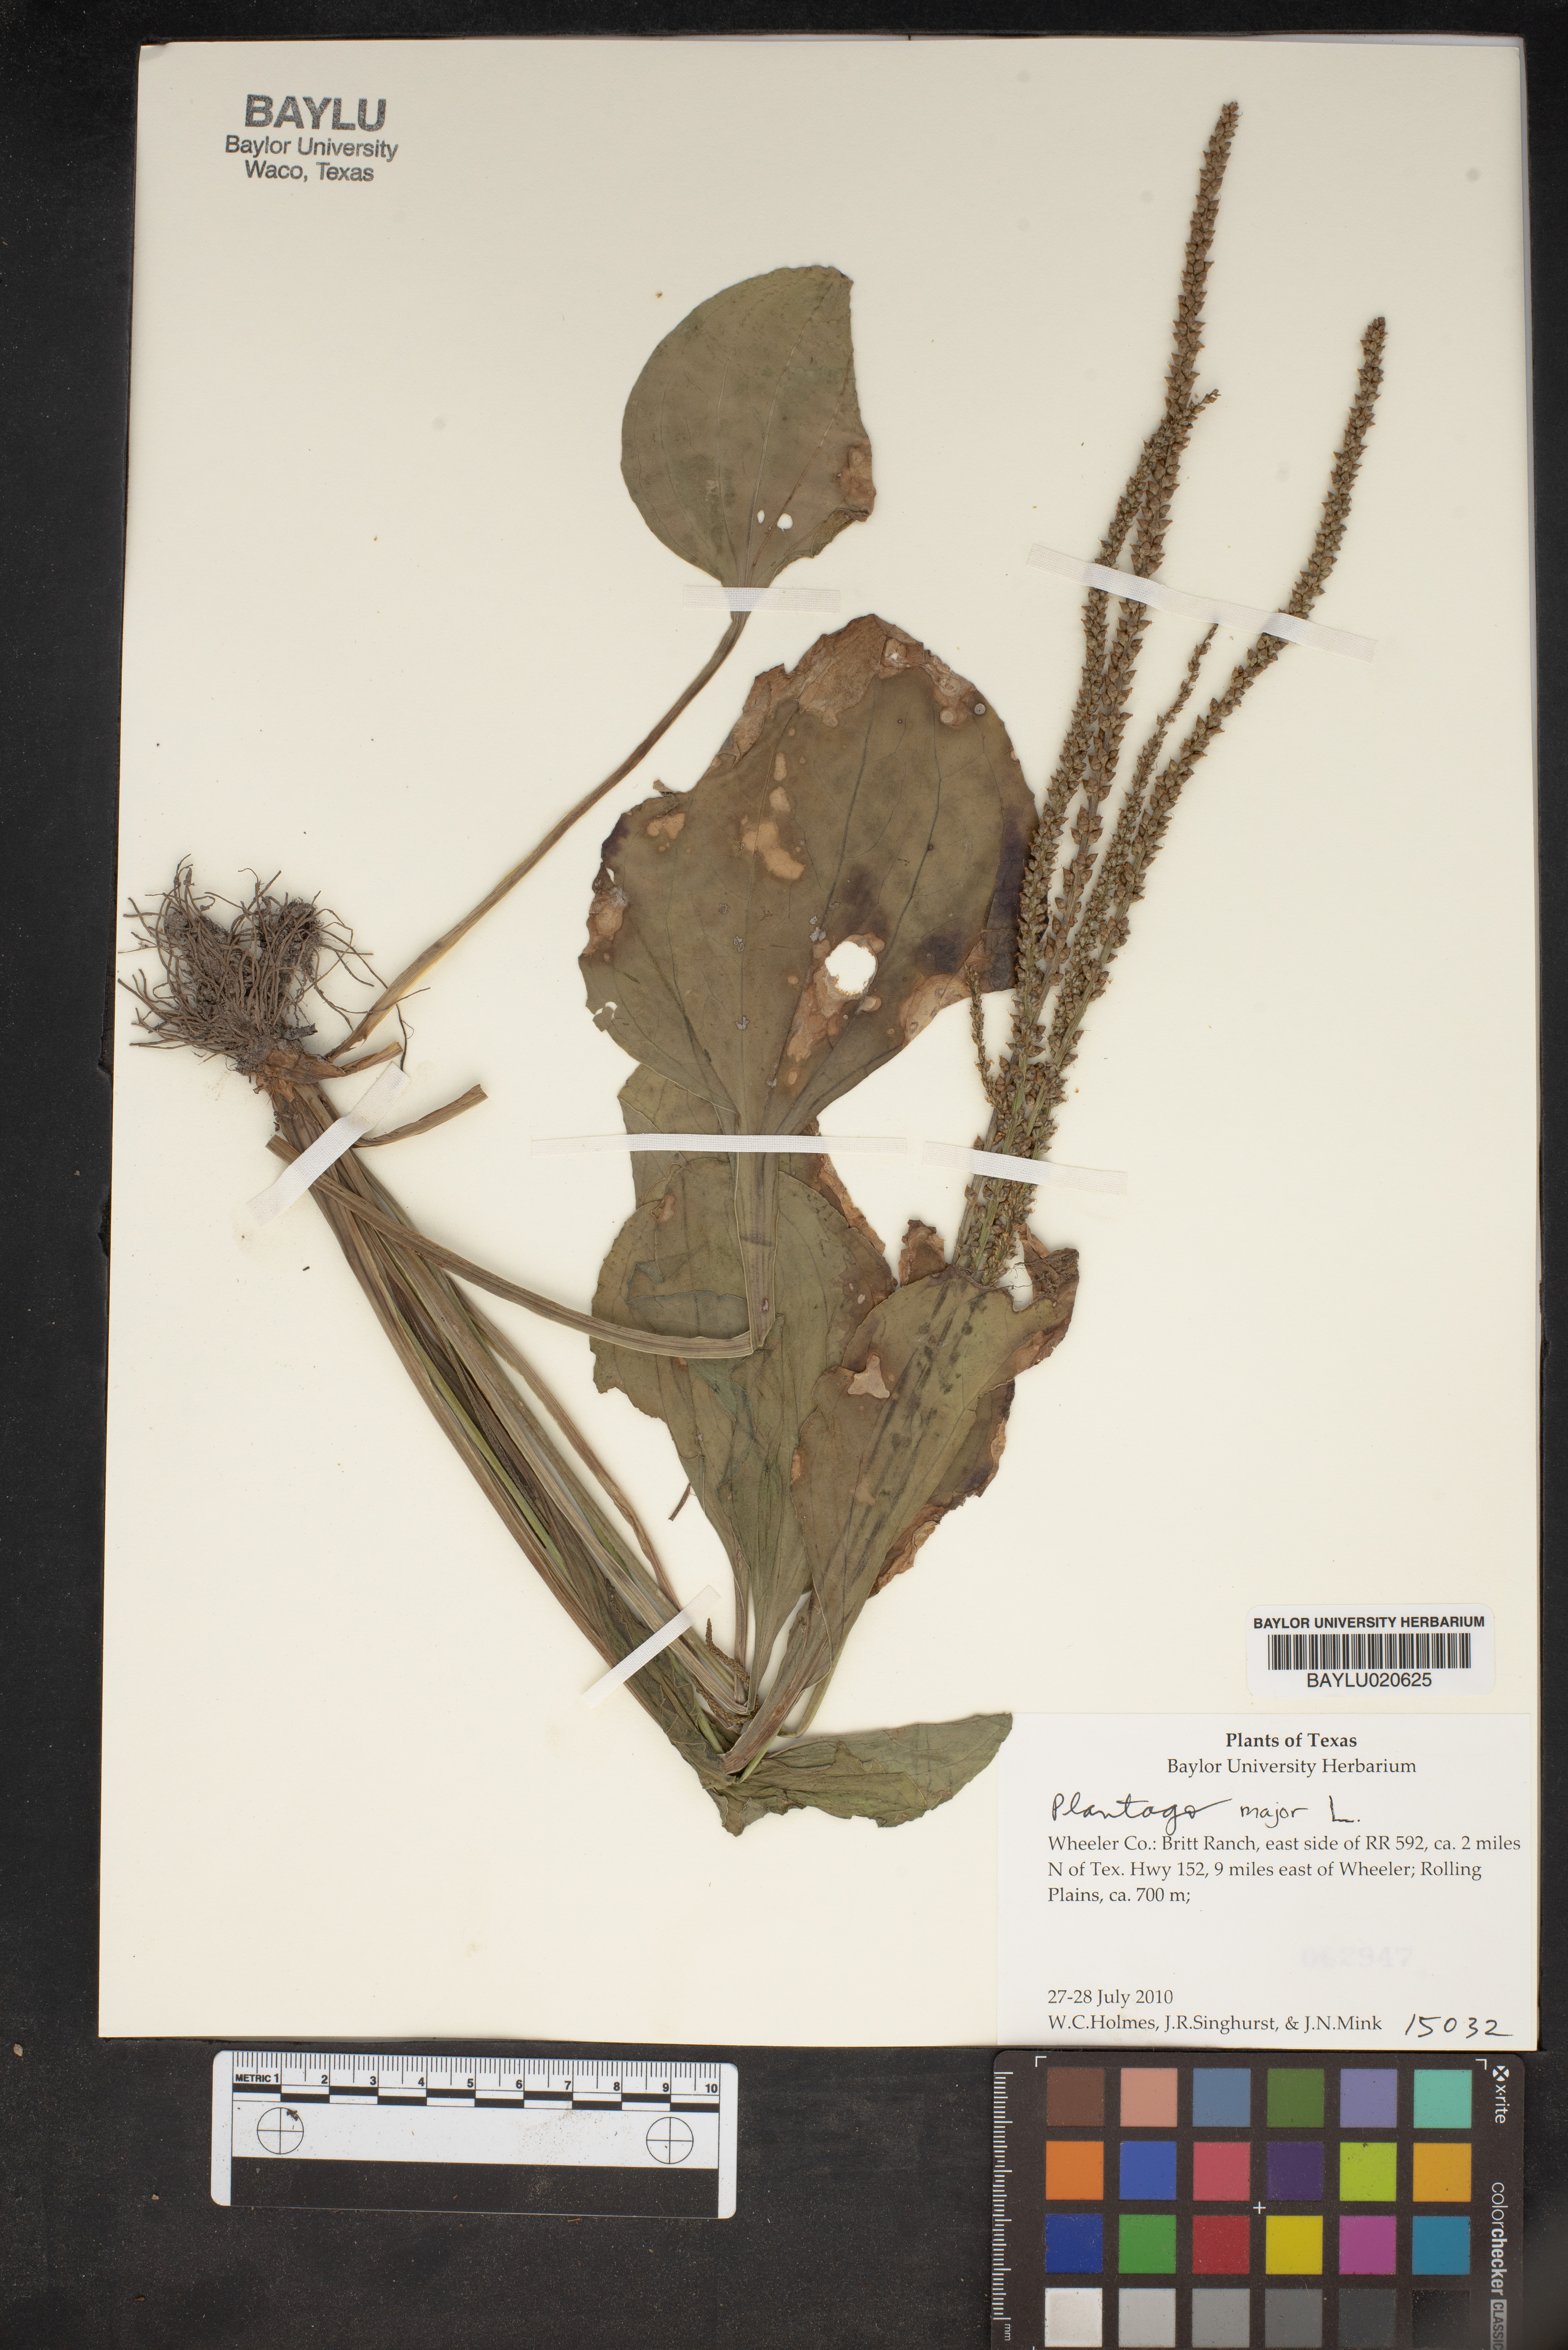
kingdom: Plantae
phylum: Tracheophyta
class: Magnoliopsida
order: Lamiales
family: Plantaginaceae
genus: Plantago
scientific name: Plantago major
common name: Common plantain
